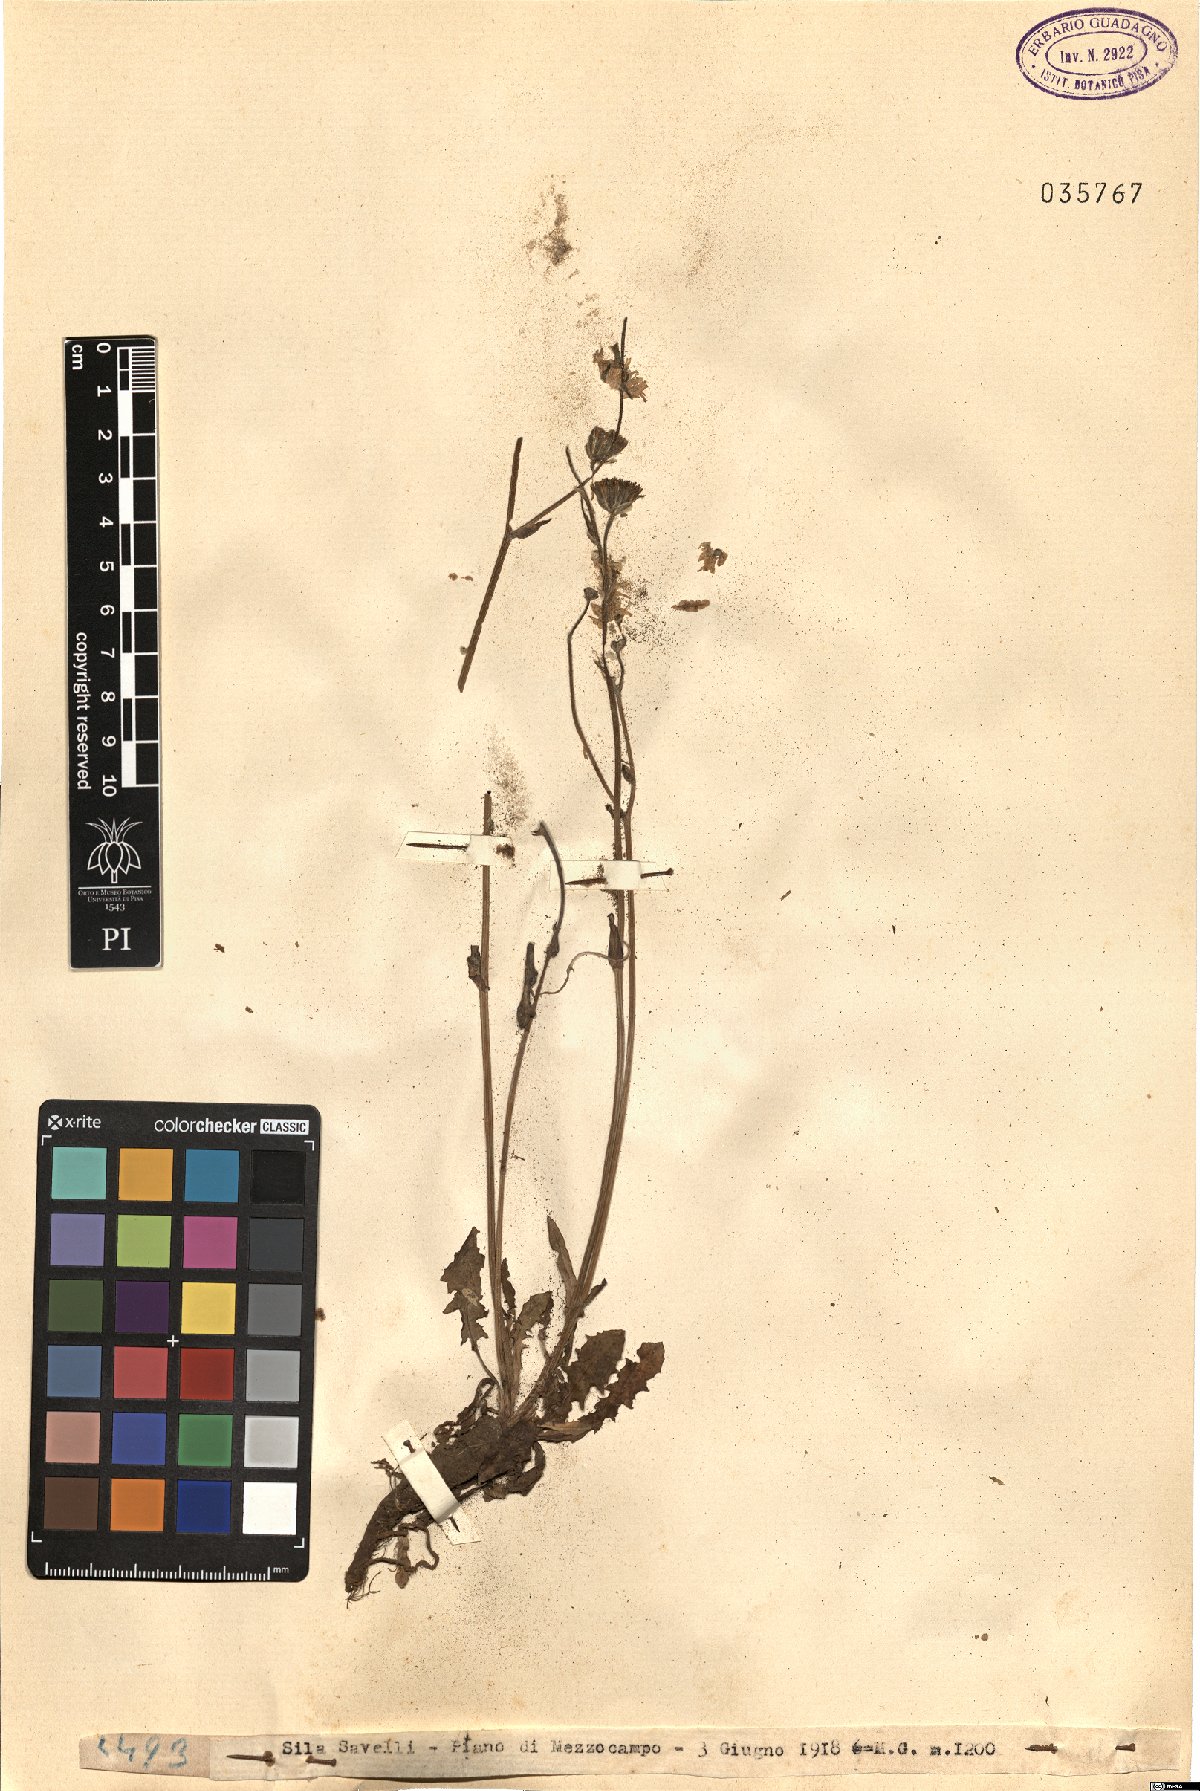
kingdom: Plantae
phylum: Tracheophyta
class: Magnoliopsida
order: Asterales
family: Asteraceae
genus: Crepis
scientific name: Crepis
